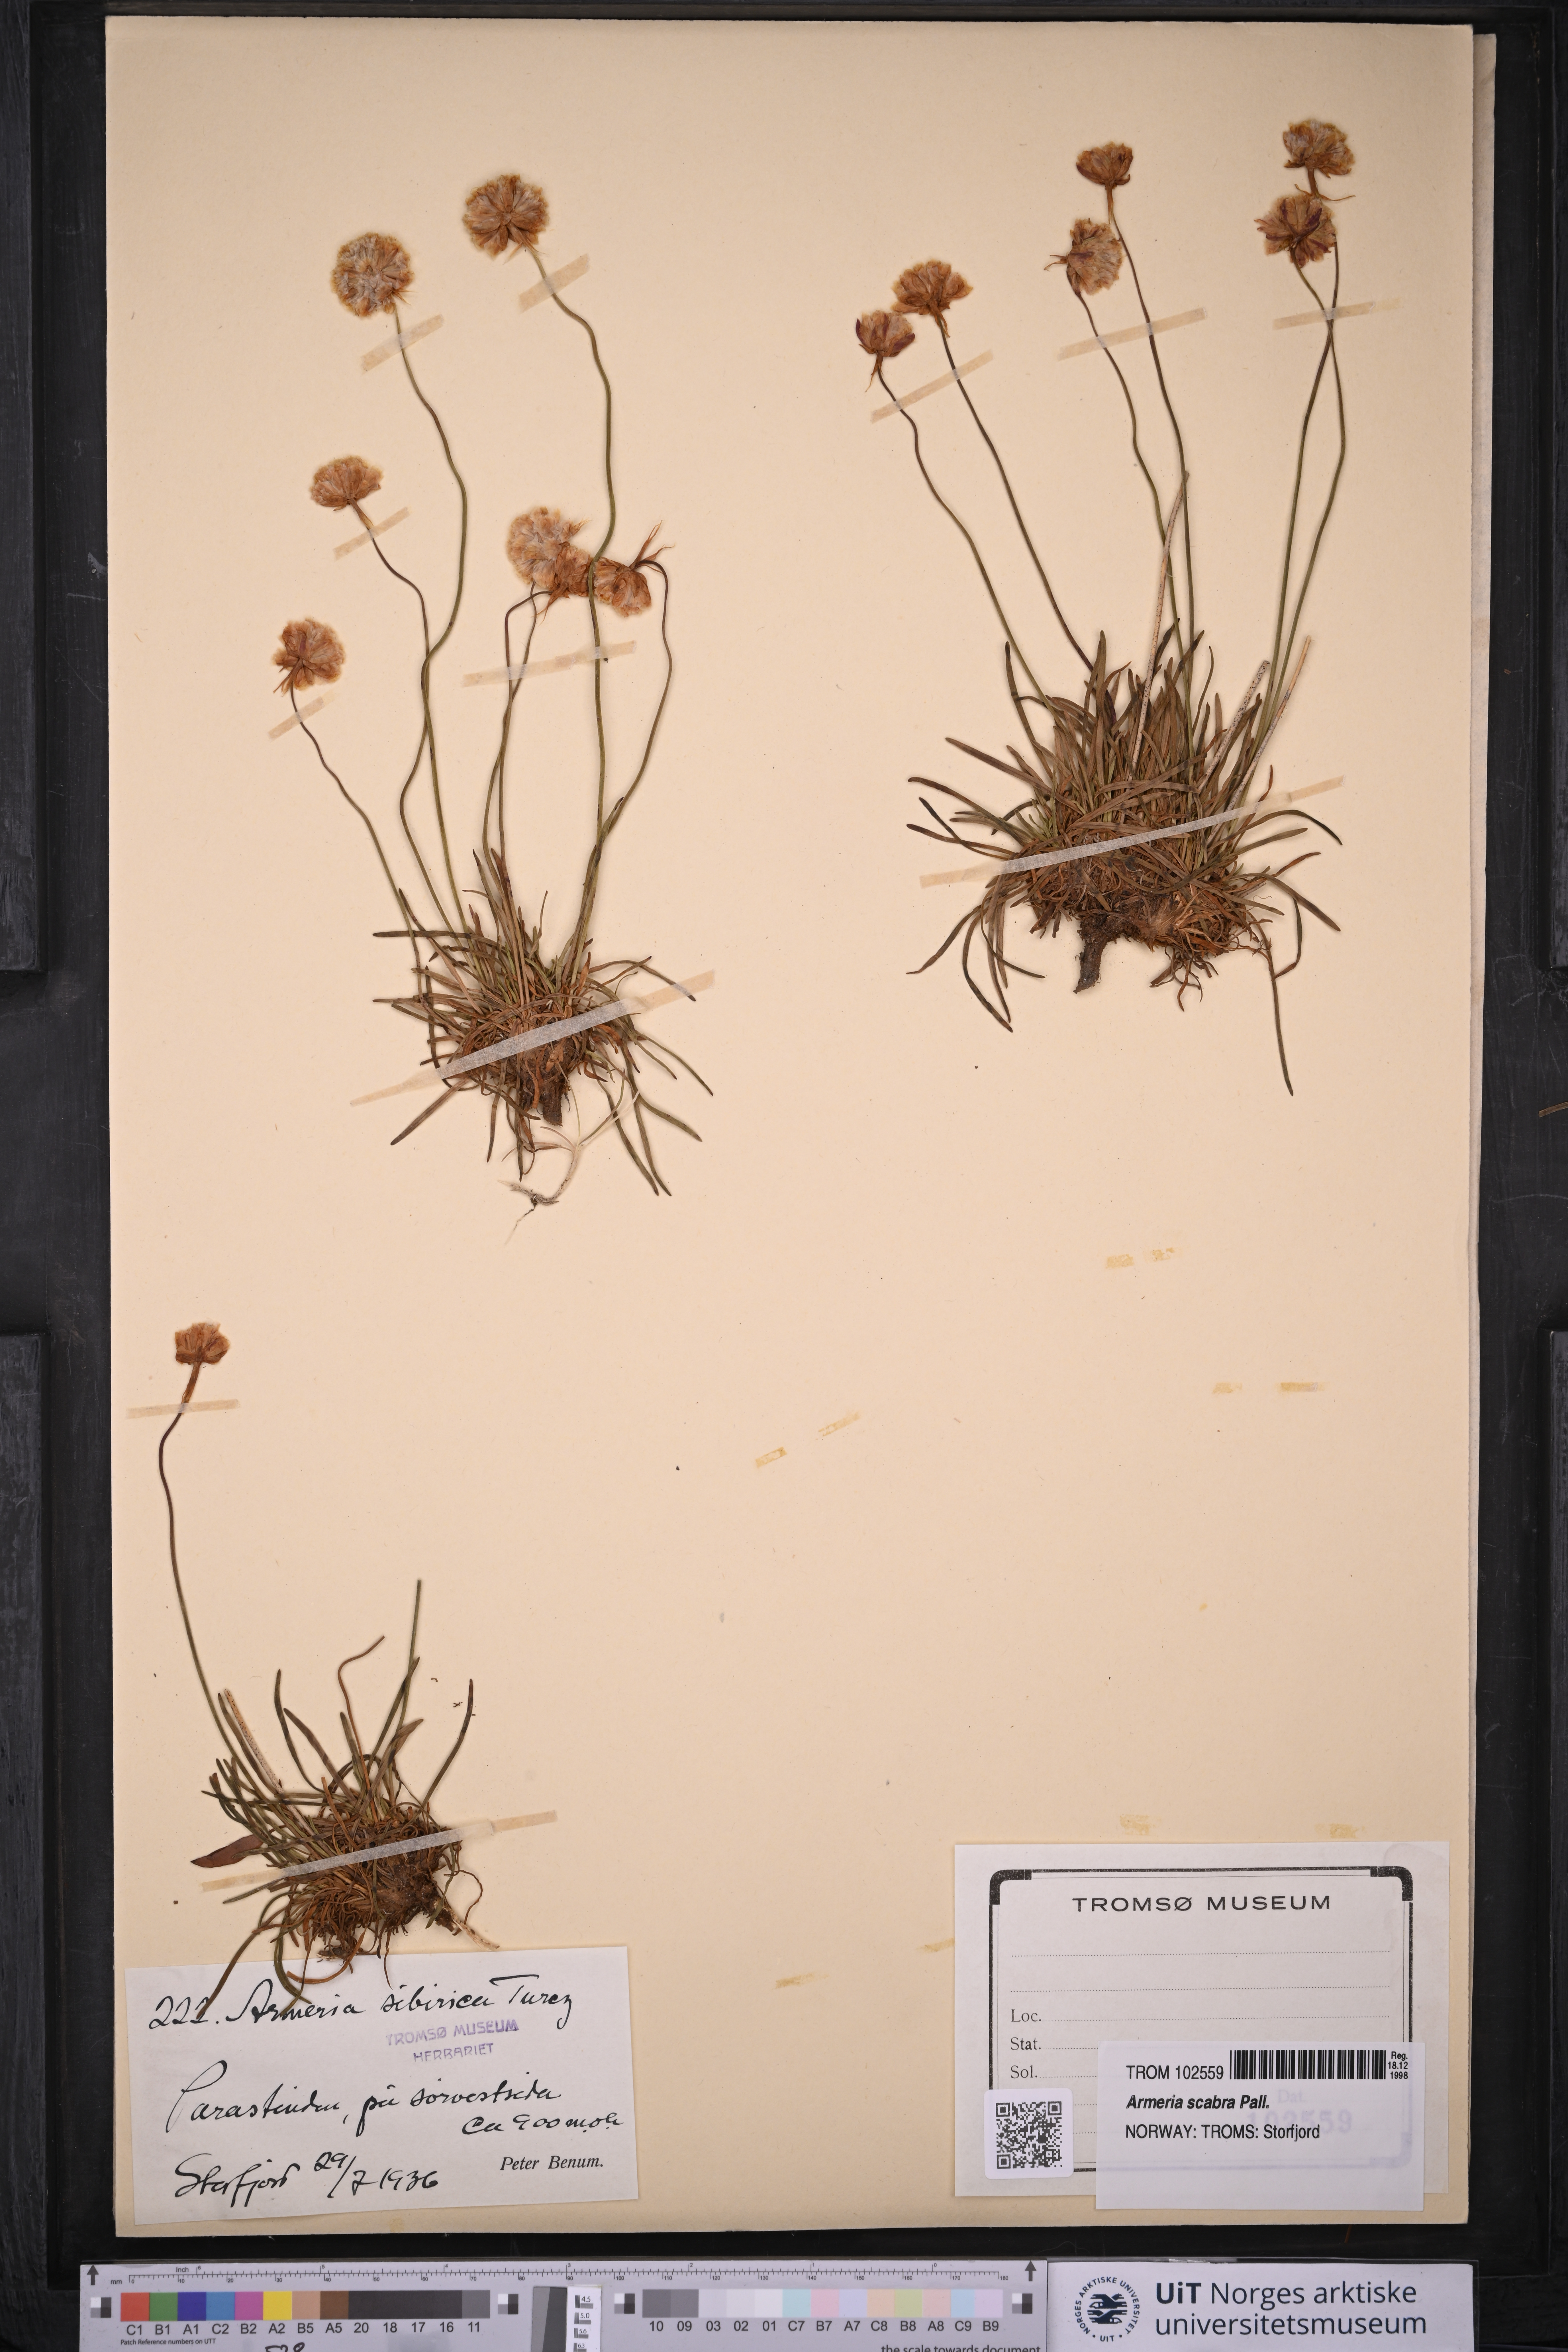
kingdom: Plantae
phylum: Tracheophyta
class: Magnoliopsida
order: Caryophyllales
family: Plumbaginaceae
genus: Armeria
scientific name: Armeria maritima
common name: Thrift
